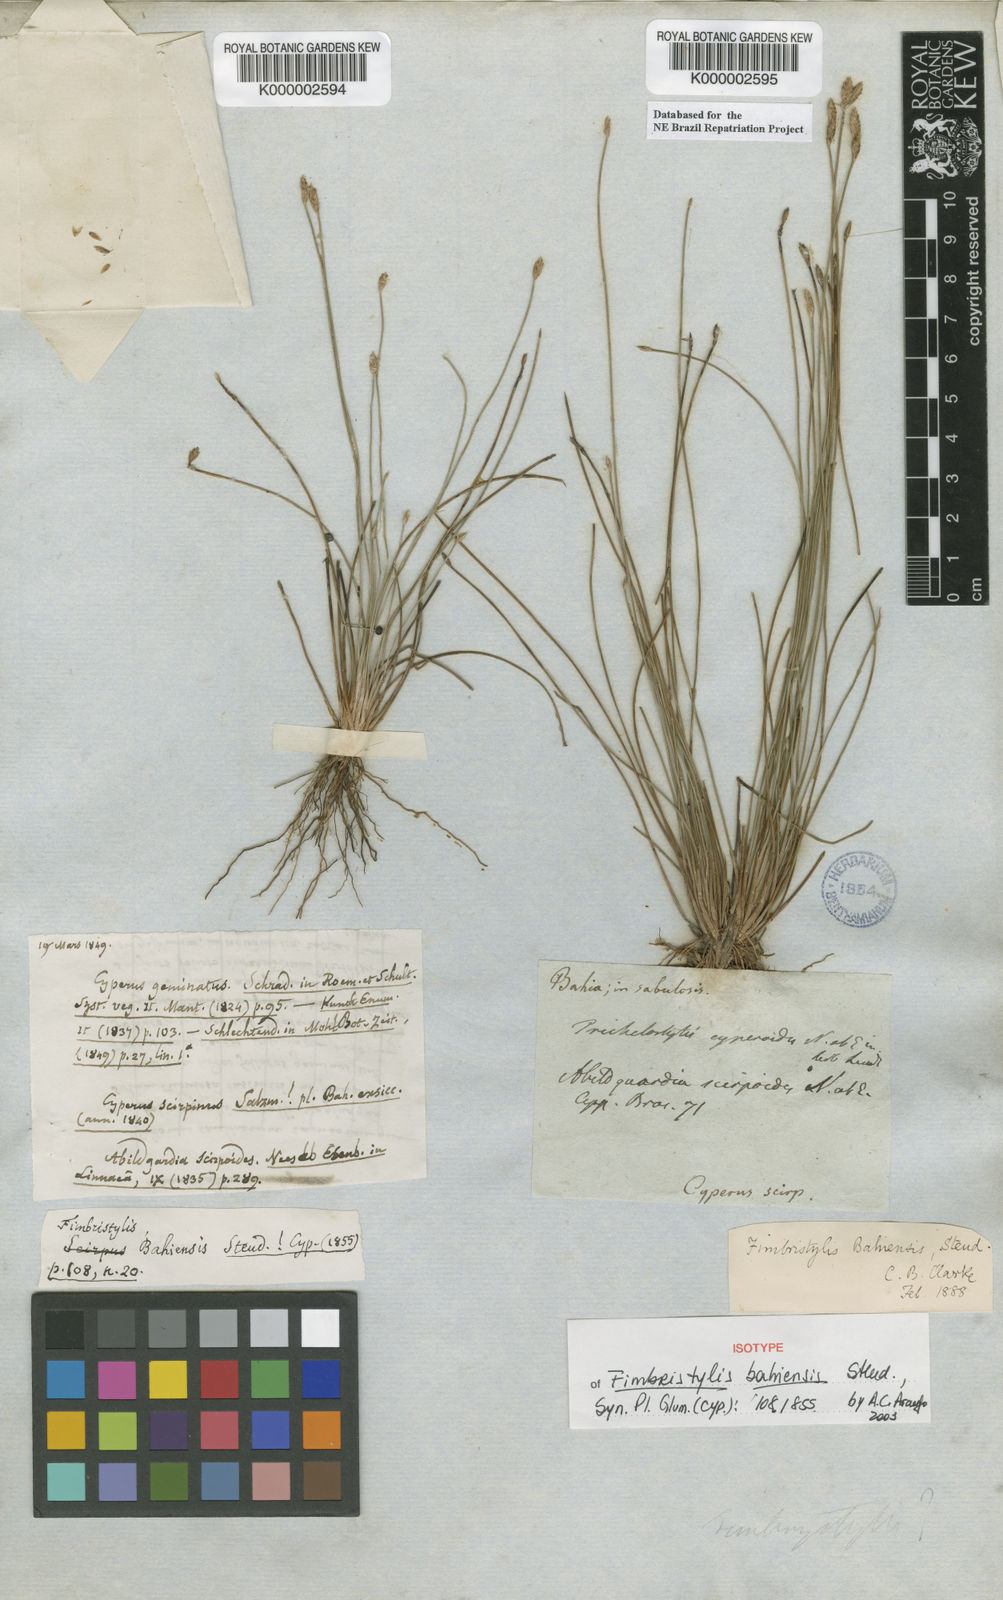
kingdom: Plantae
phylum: Tracheophyta
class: Liliopsida
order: Poales
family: Cyperaceae
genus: Fimbristylis
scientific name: Fimbristylis bahiensis
